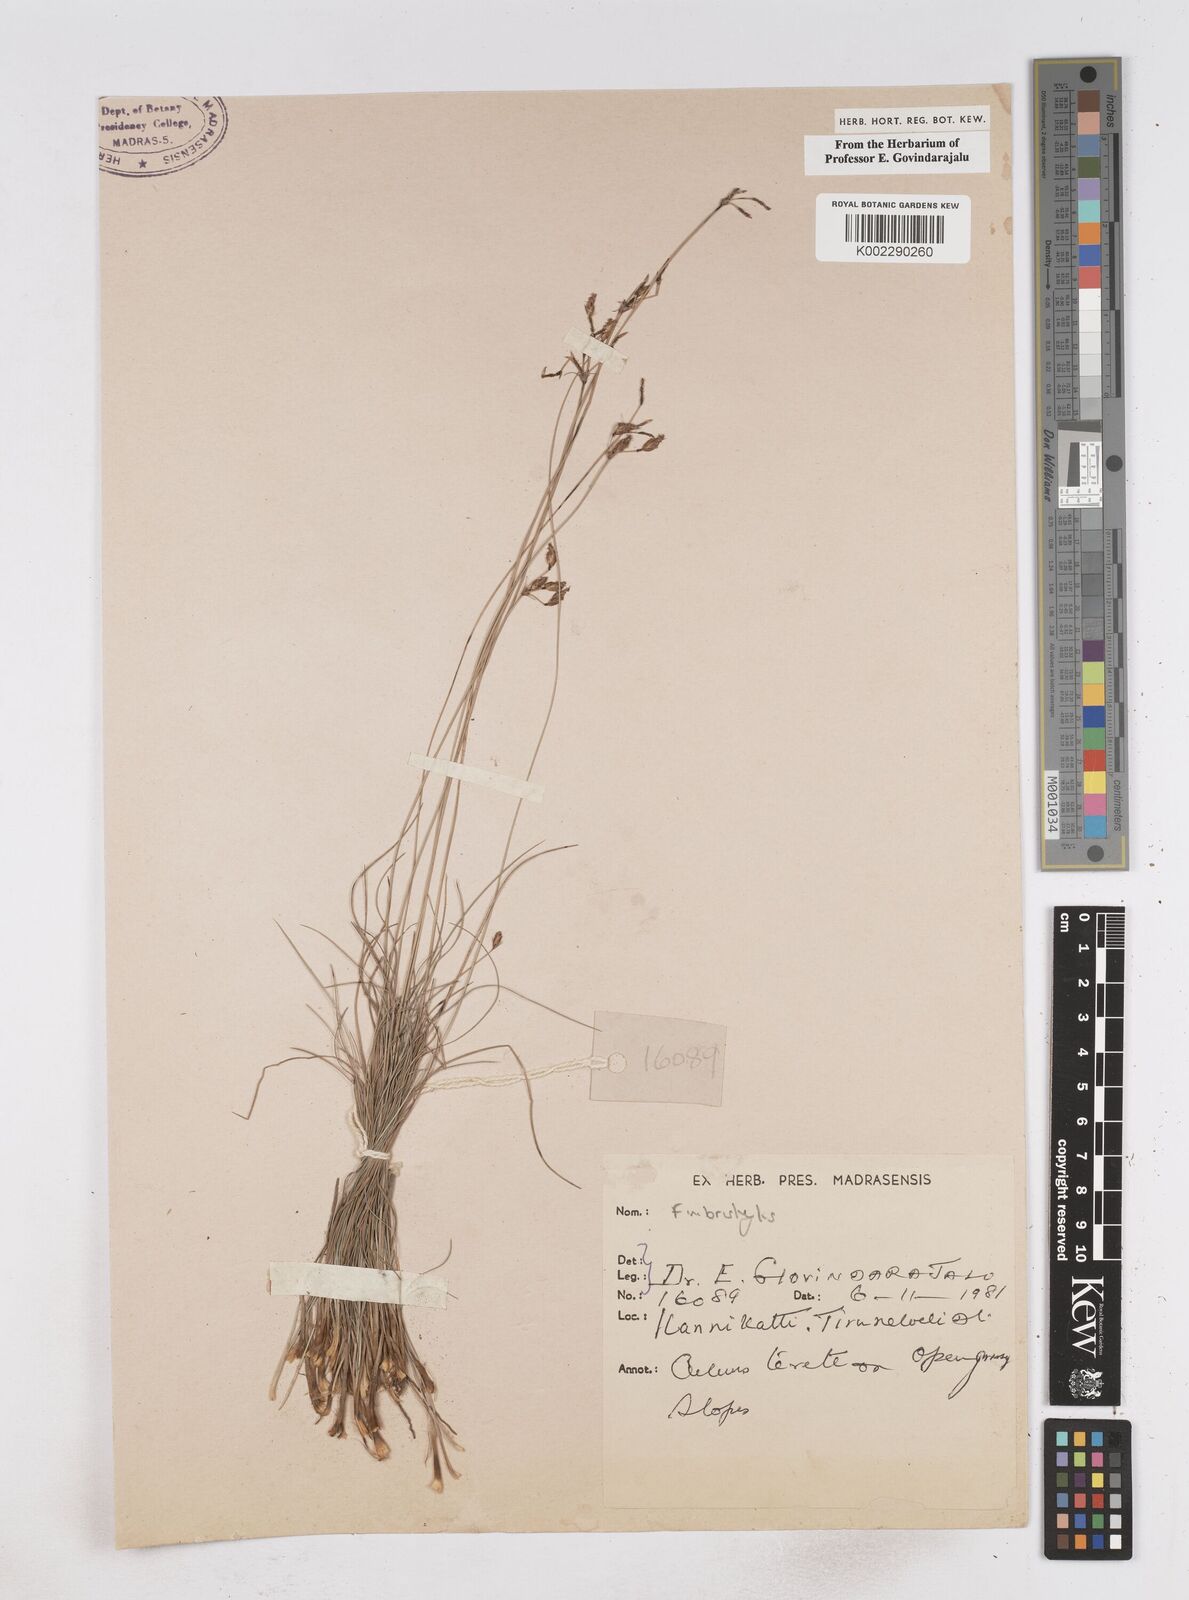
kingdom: Plantae
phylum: Tracheophyta
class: Liliopsida
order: Poales
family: Cyperaceae
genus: Fimbristylis
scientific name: Fimbristylis
